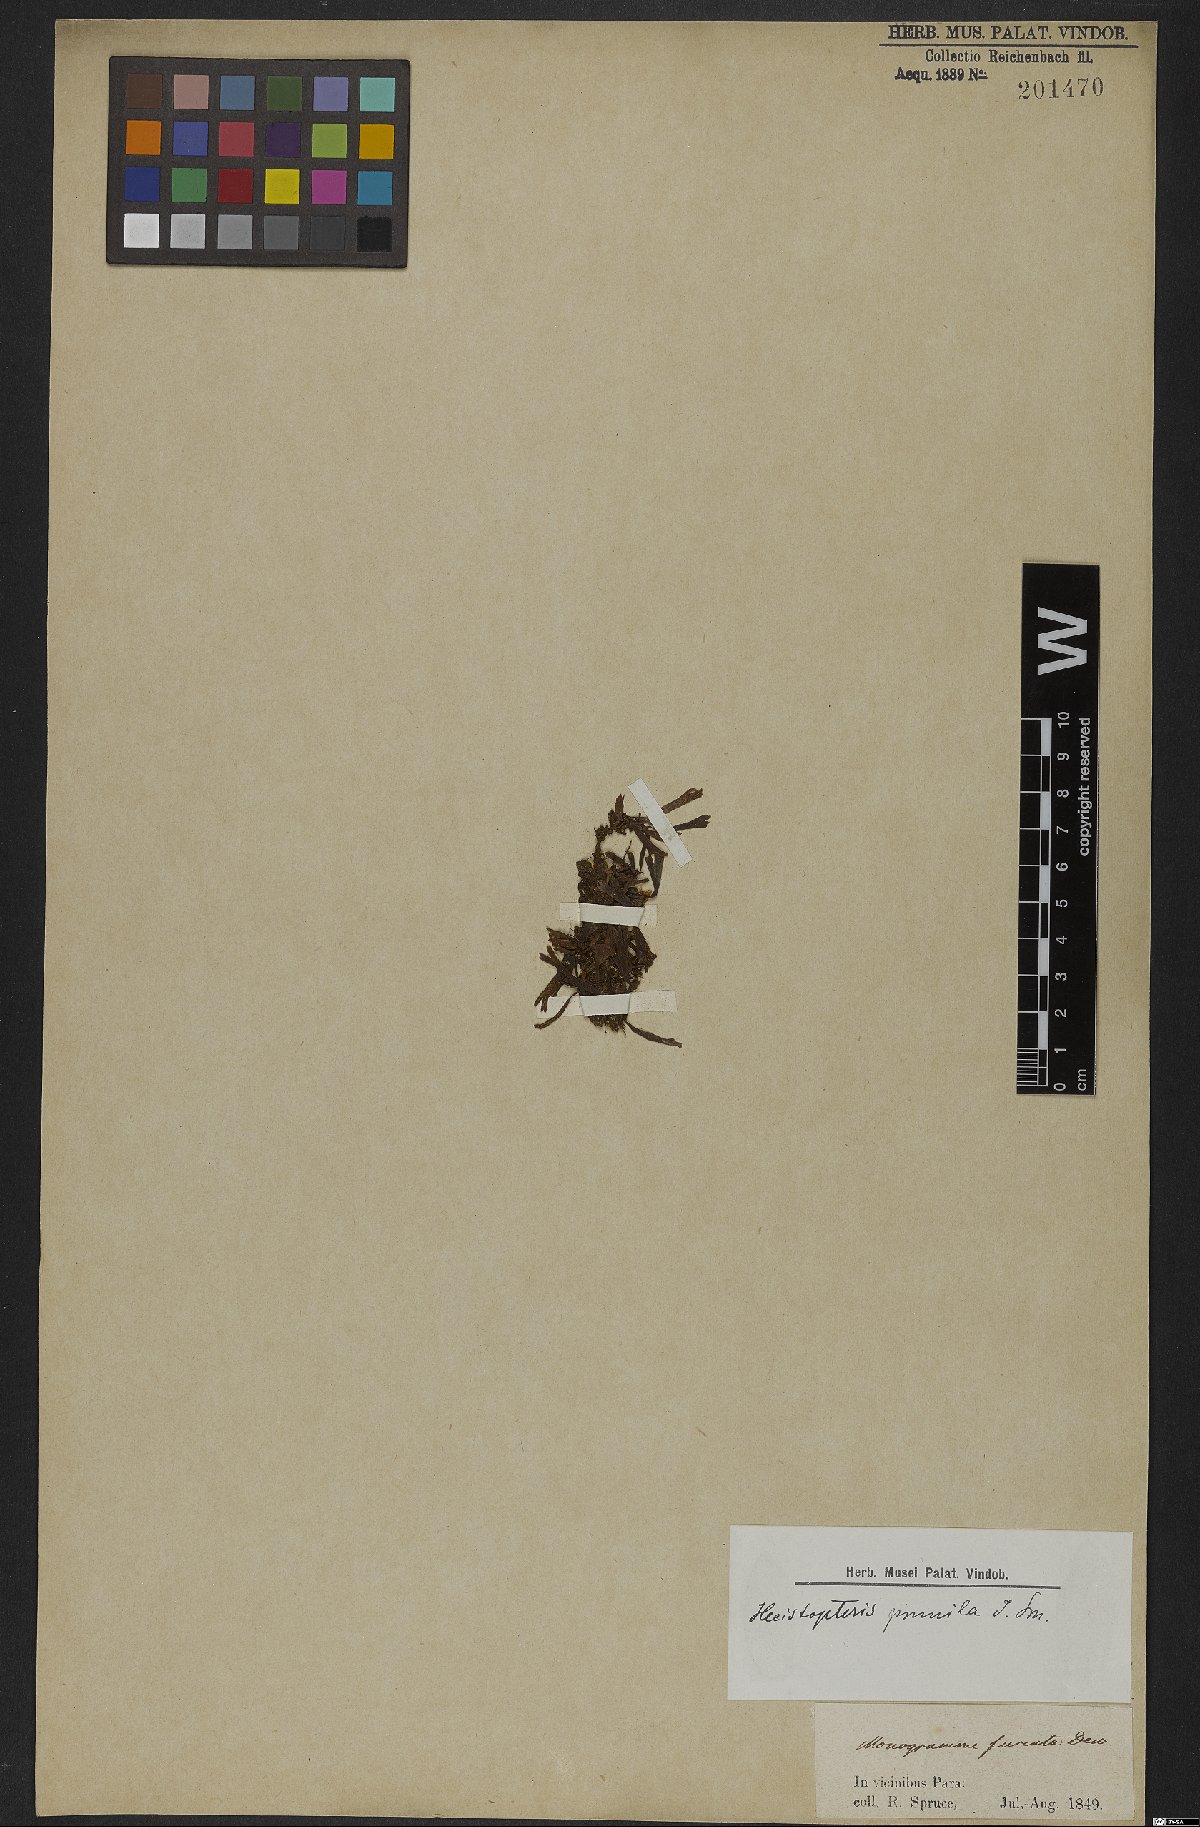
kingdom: Plantae
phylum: Tracheophyta
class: Polypodiopsida
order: Polypodiales
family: Pteridaceae
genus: Hecistopteris
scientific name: Hecistopteris pumila
